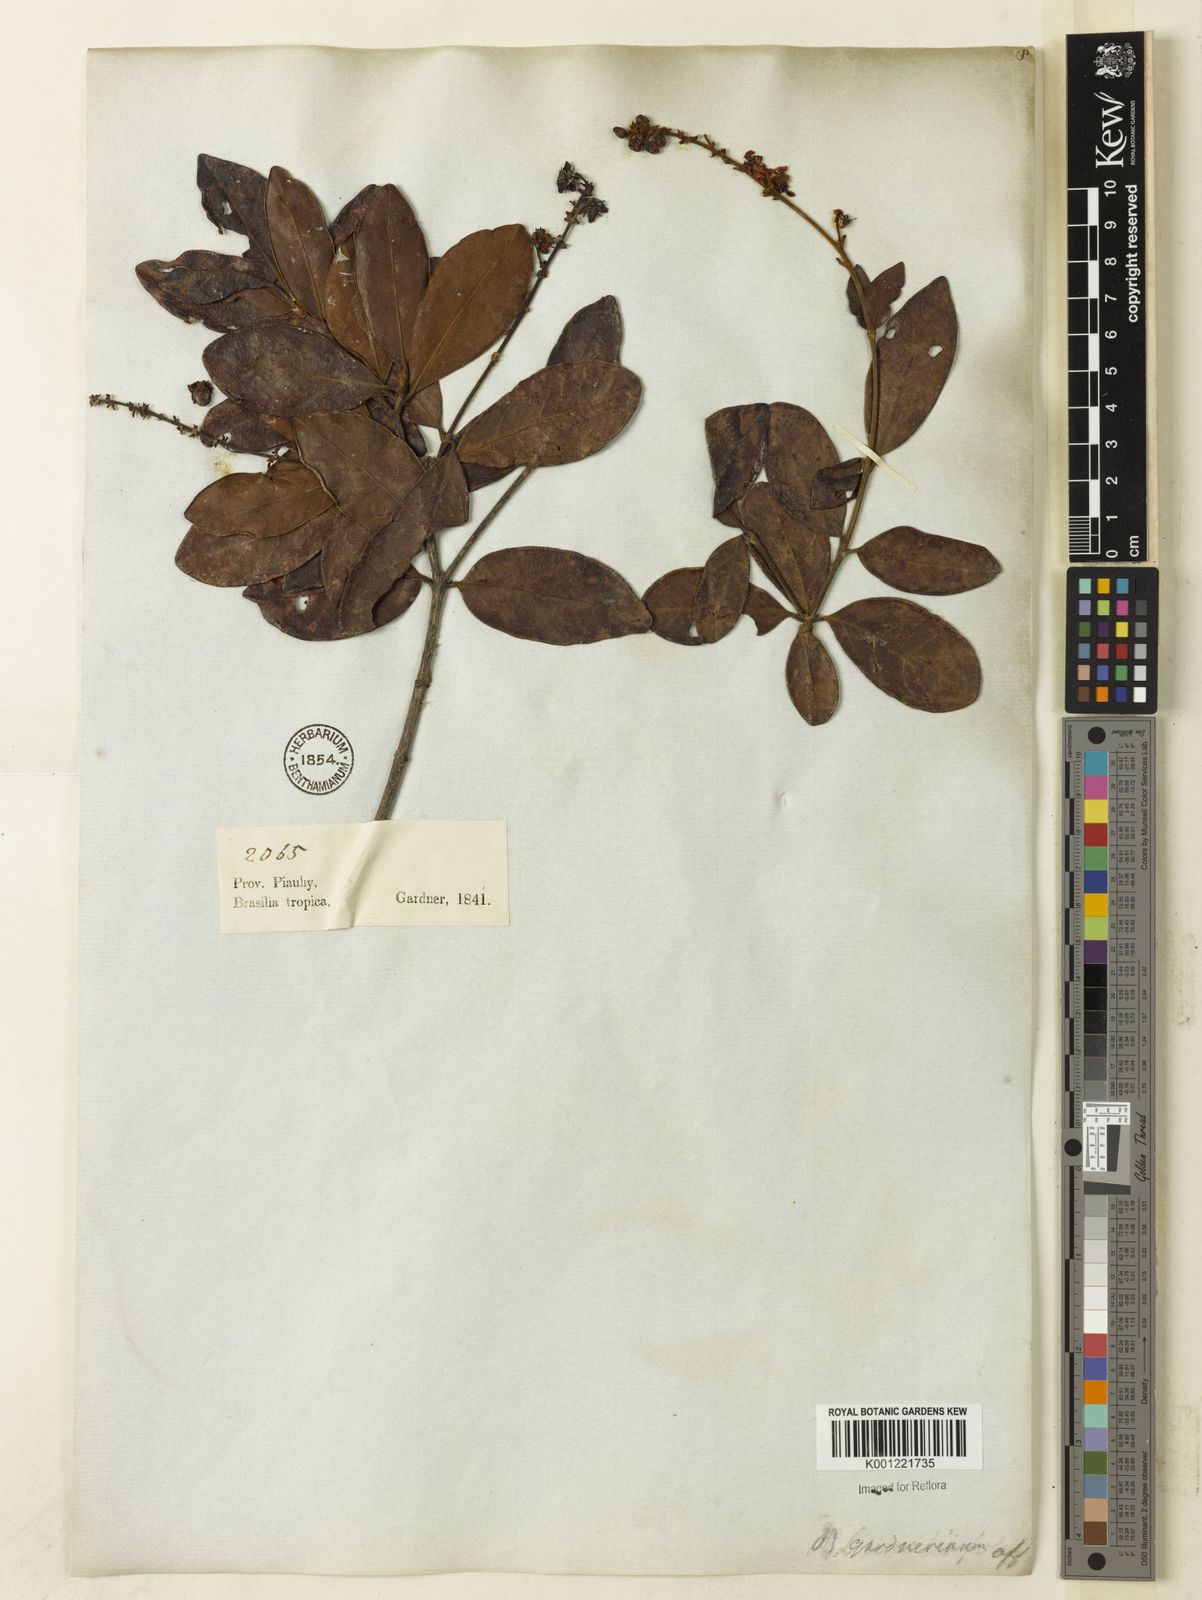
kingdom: Plantae
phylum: Tracheophyta
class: Magnoliopsida
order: Malpighiales
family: Malpighiaceae
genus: Byrsonima
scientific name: Byrsonima vacciniifolia
